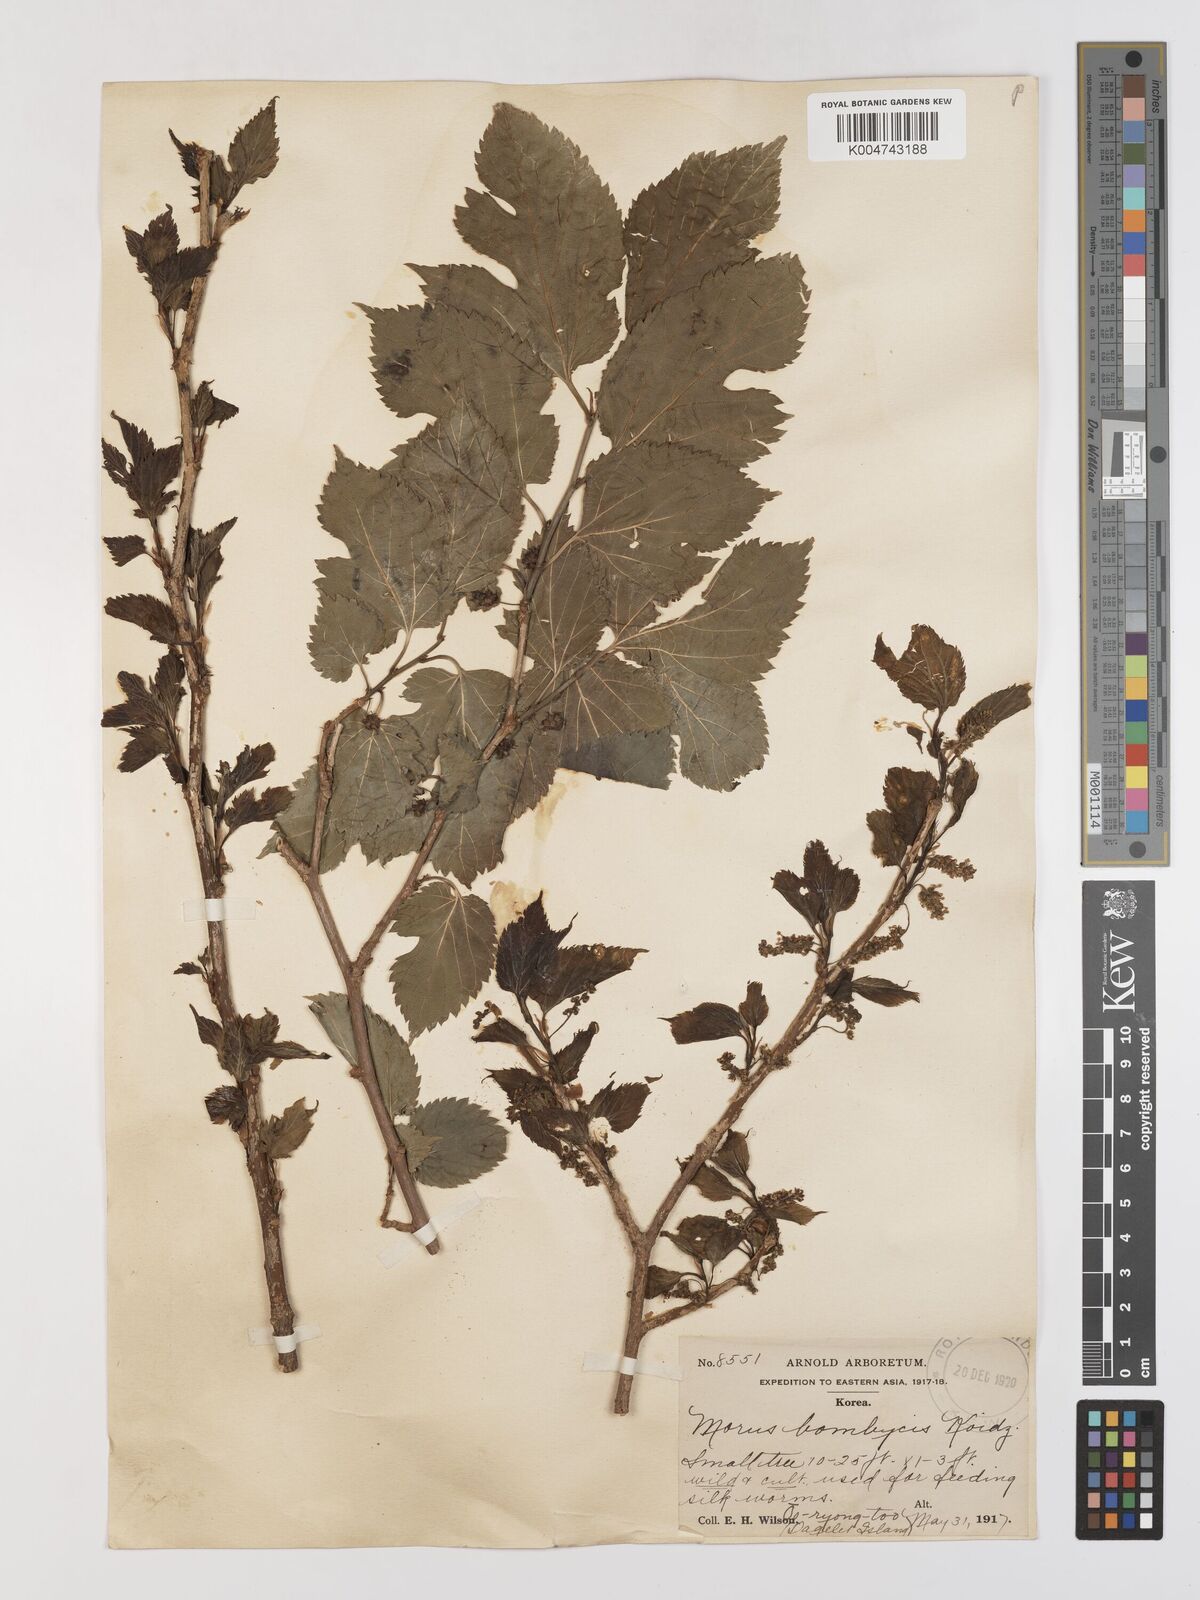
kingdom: Plantae
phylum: Tracheophyta
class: Magnoliopsida
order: Rosales
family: Moraceae
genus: Morus
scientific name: Morus indica
